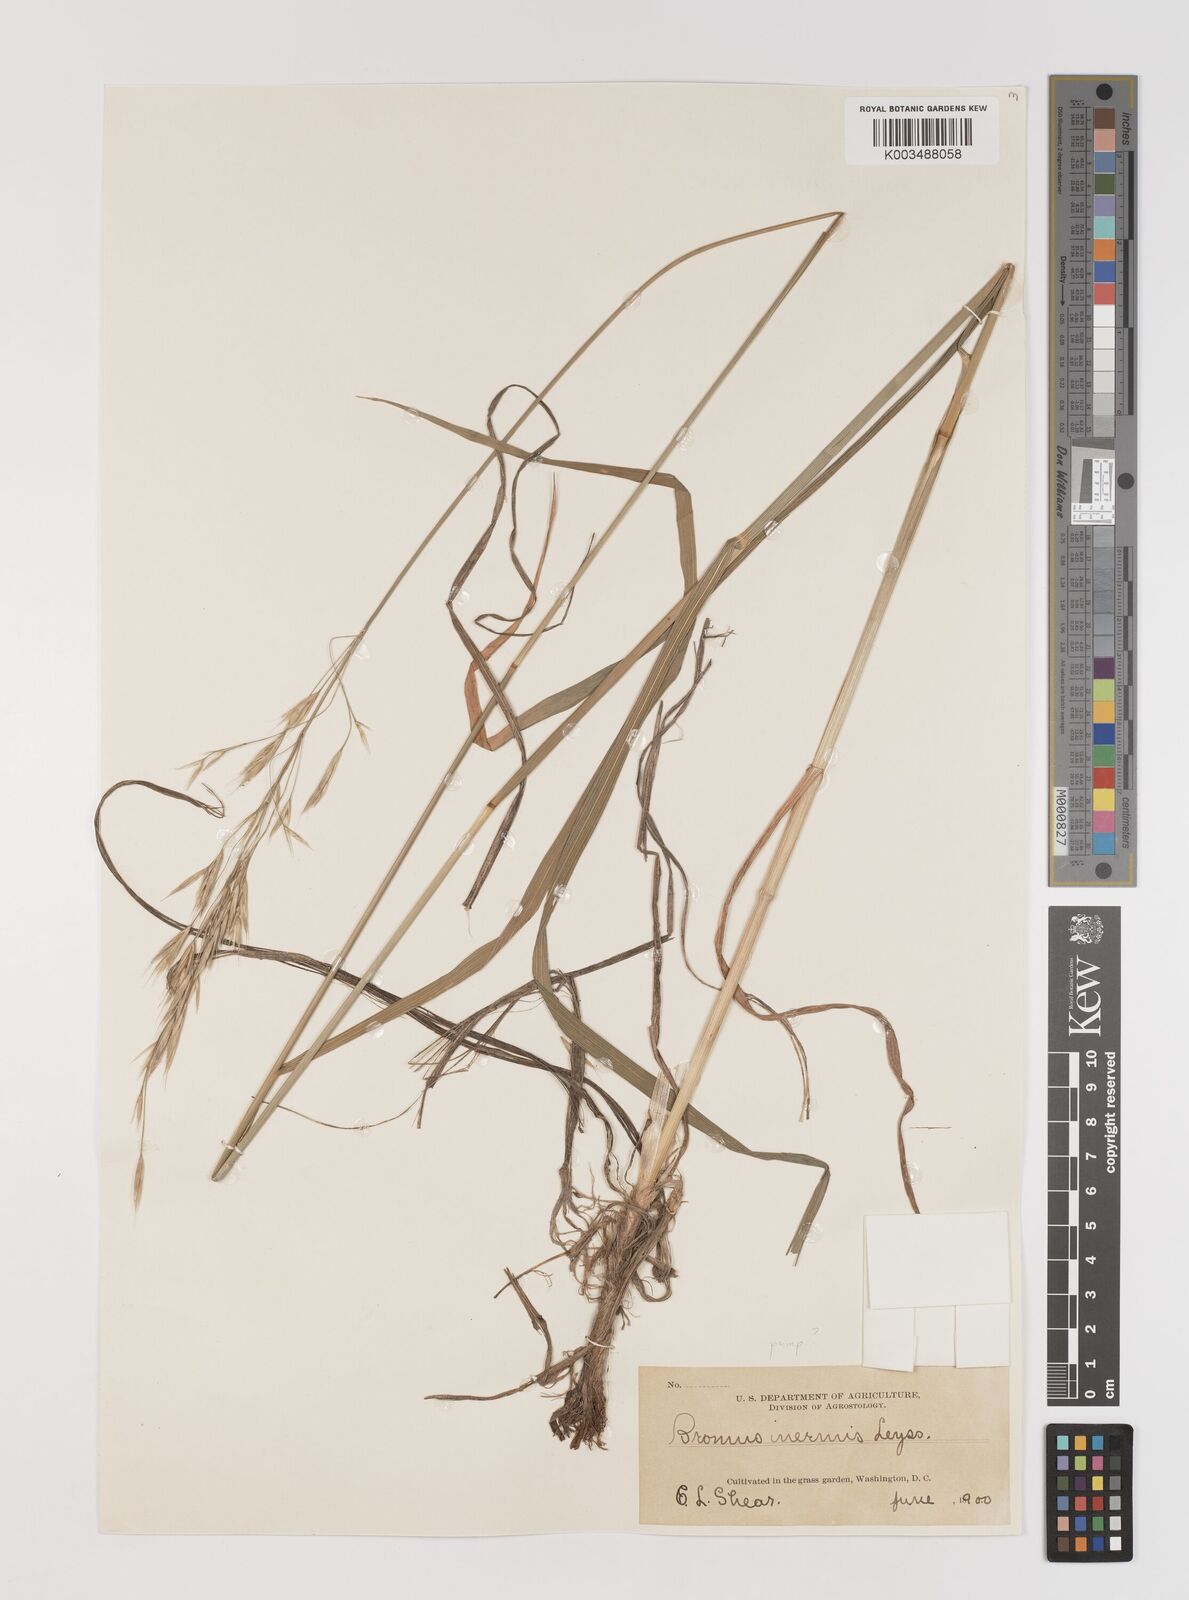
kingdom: Plantae
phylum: Tracheophyta
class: Liliopsida
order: Poales
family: Poaceae
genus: Bromus
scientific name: Bromus inermis
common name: Smooth brome
